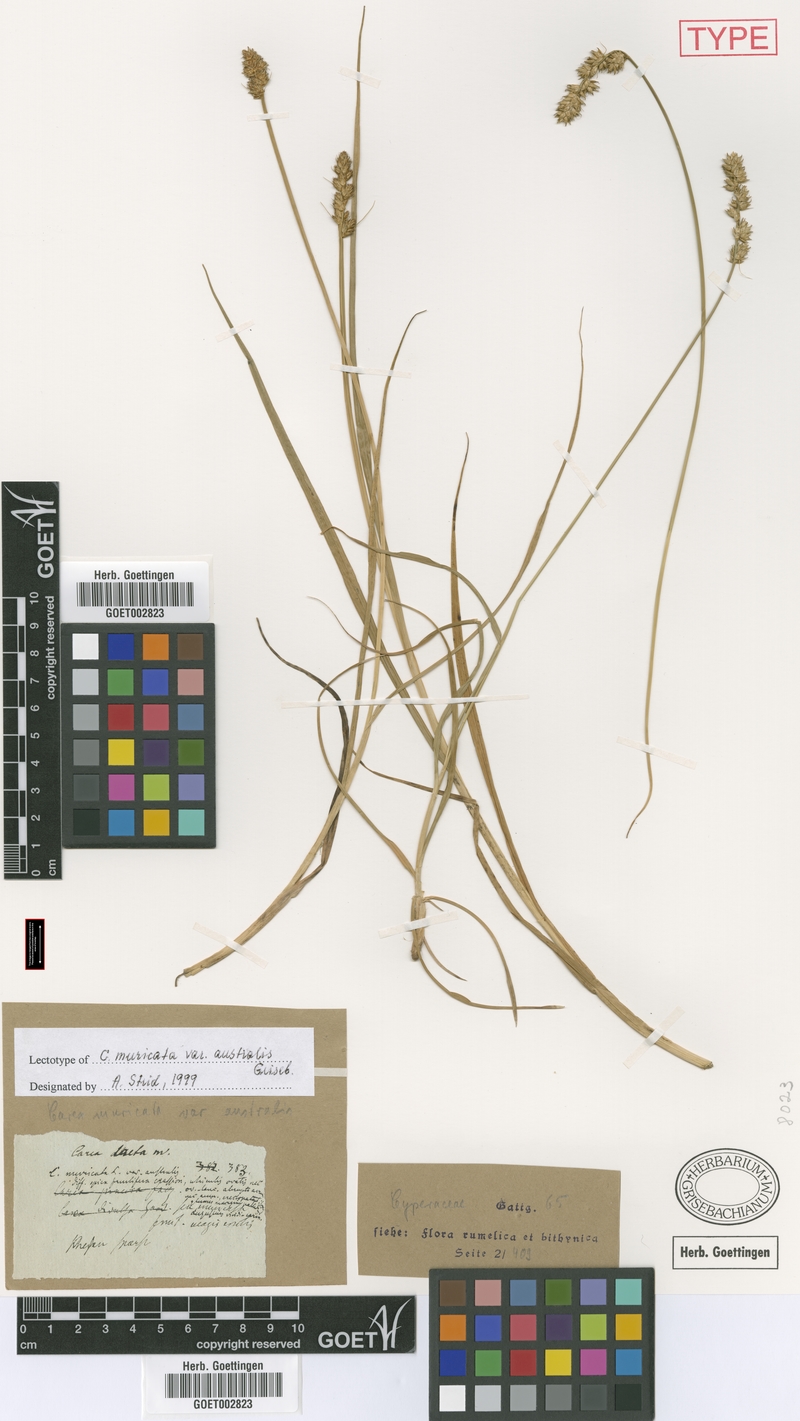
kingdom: Plantae
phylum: Tracheophyta
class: Liliopsida
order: Poales
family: Cyperaceae
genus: Carex
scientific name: Carex polyphylla
